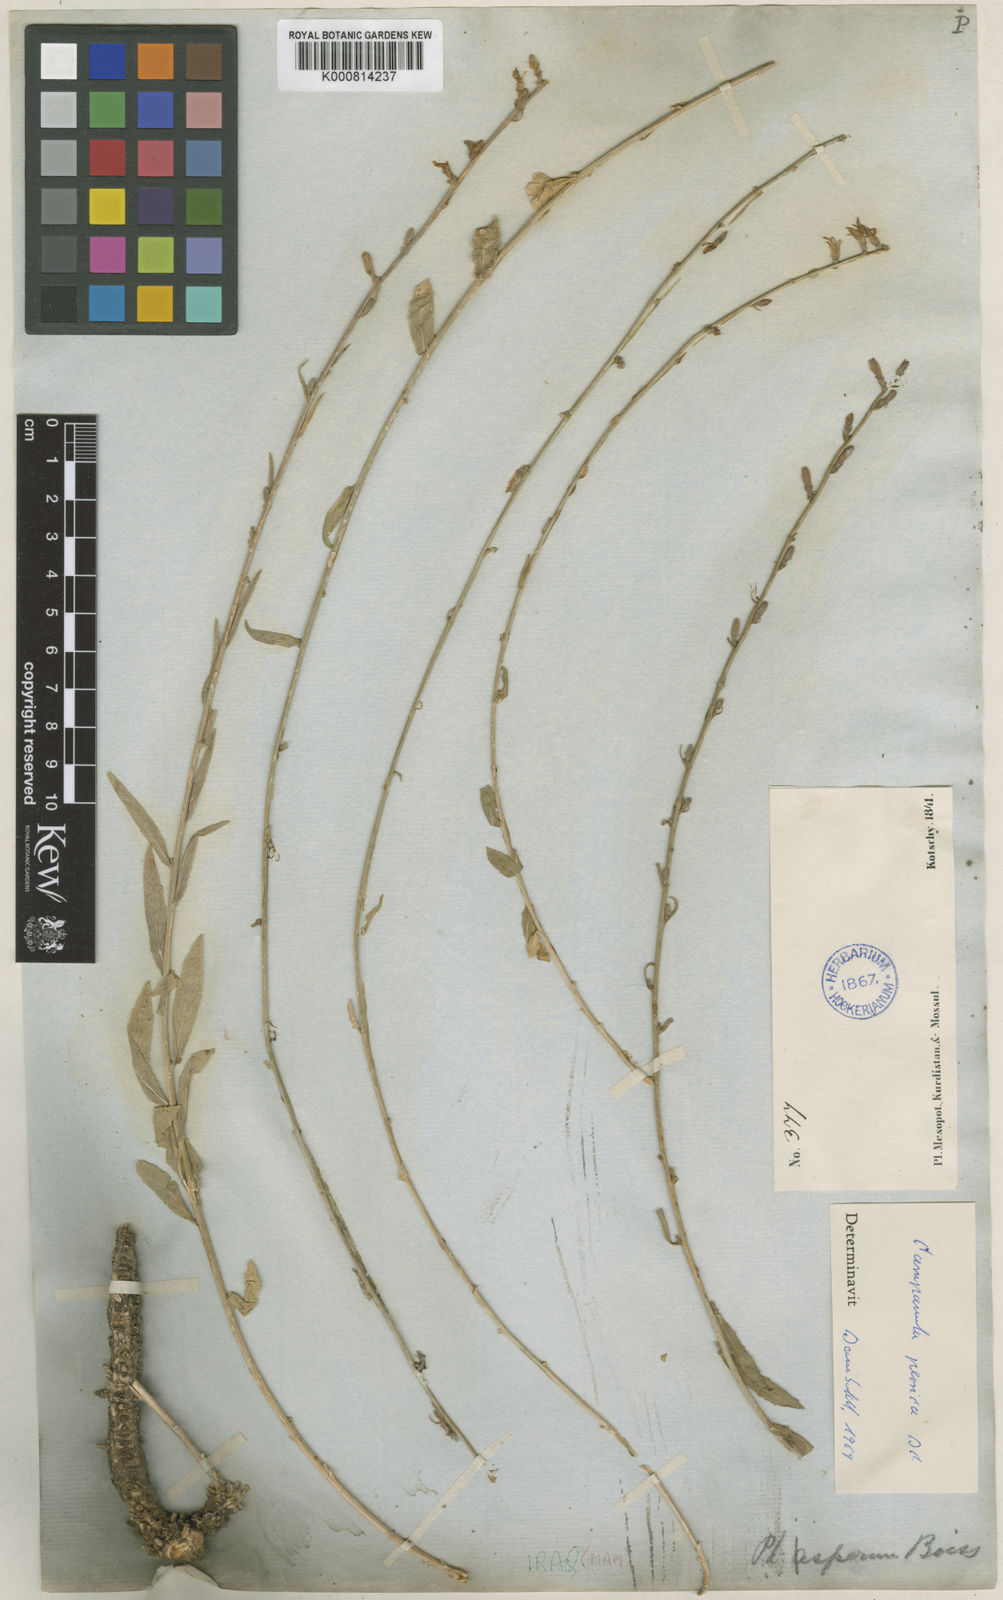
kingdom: Plantae
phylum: Tracheophyta
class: Magnoliopsida
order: Asterales
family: Campanulaceae
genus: Asyneuma
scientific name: Asyneuma persicum
